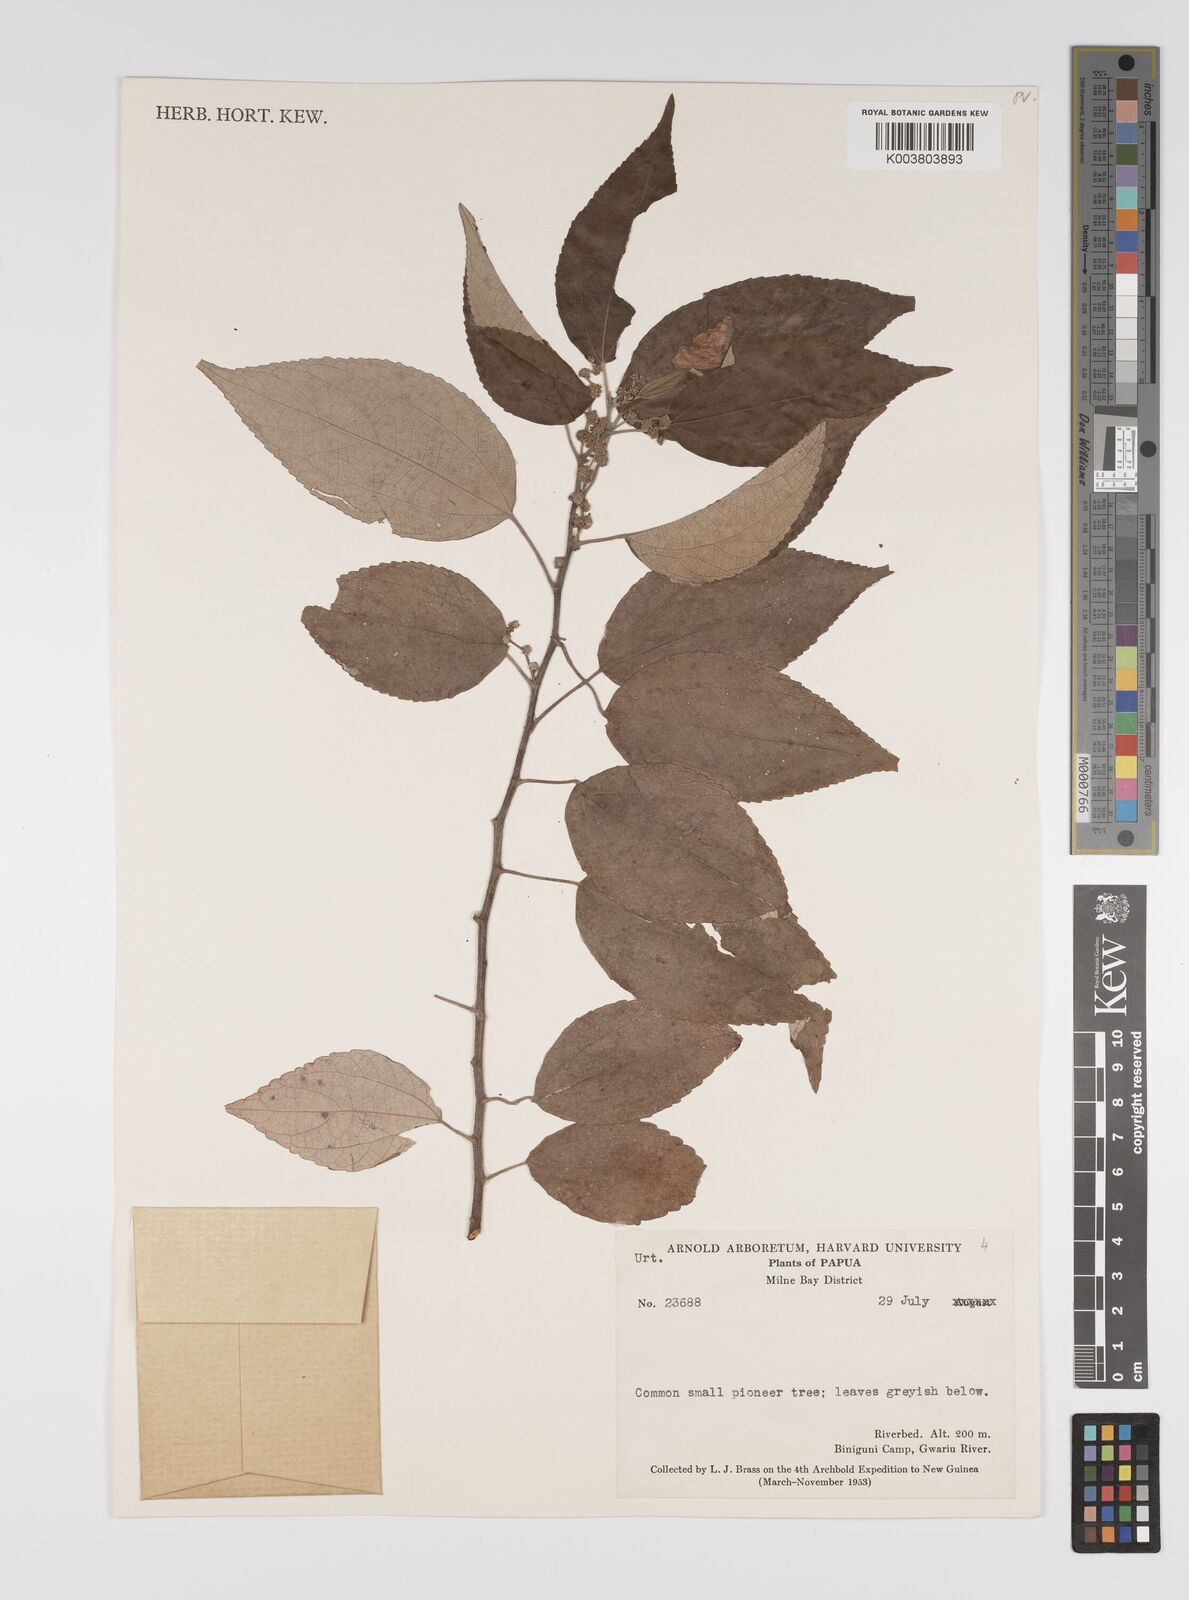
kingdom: Plantae
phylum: Tracheophyta
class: Magnoliopsida
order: Rosales
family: Urticaceae
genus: Pipturus
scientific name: Pipturus argenteus
